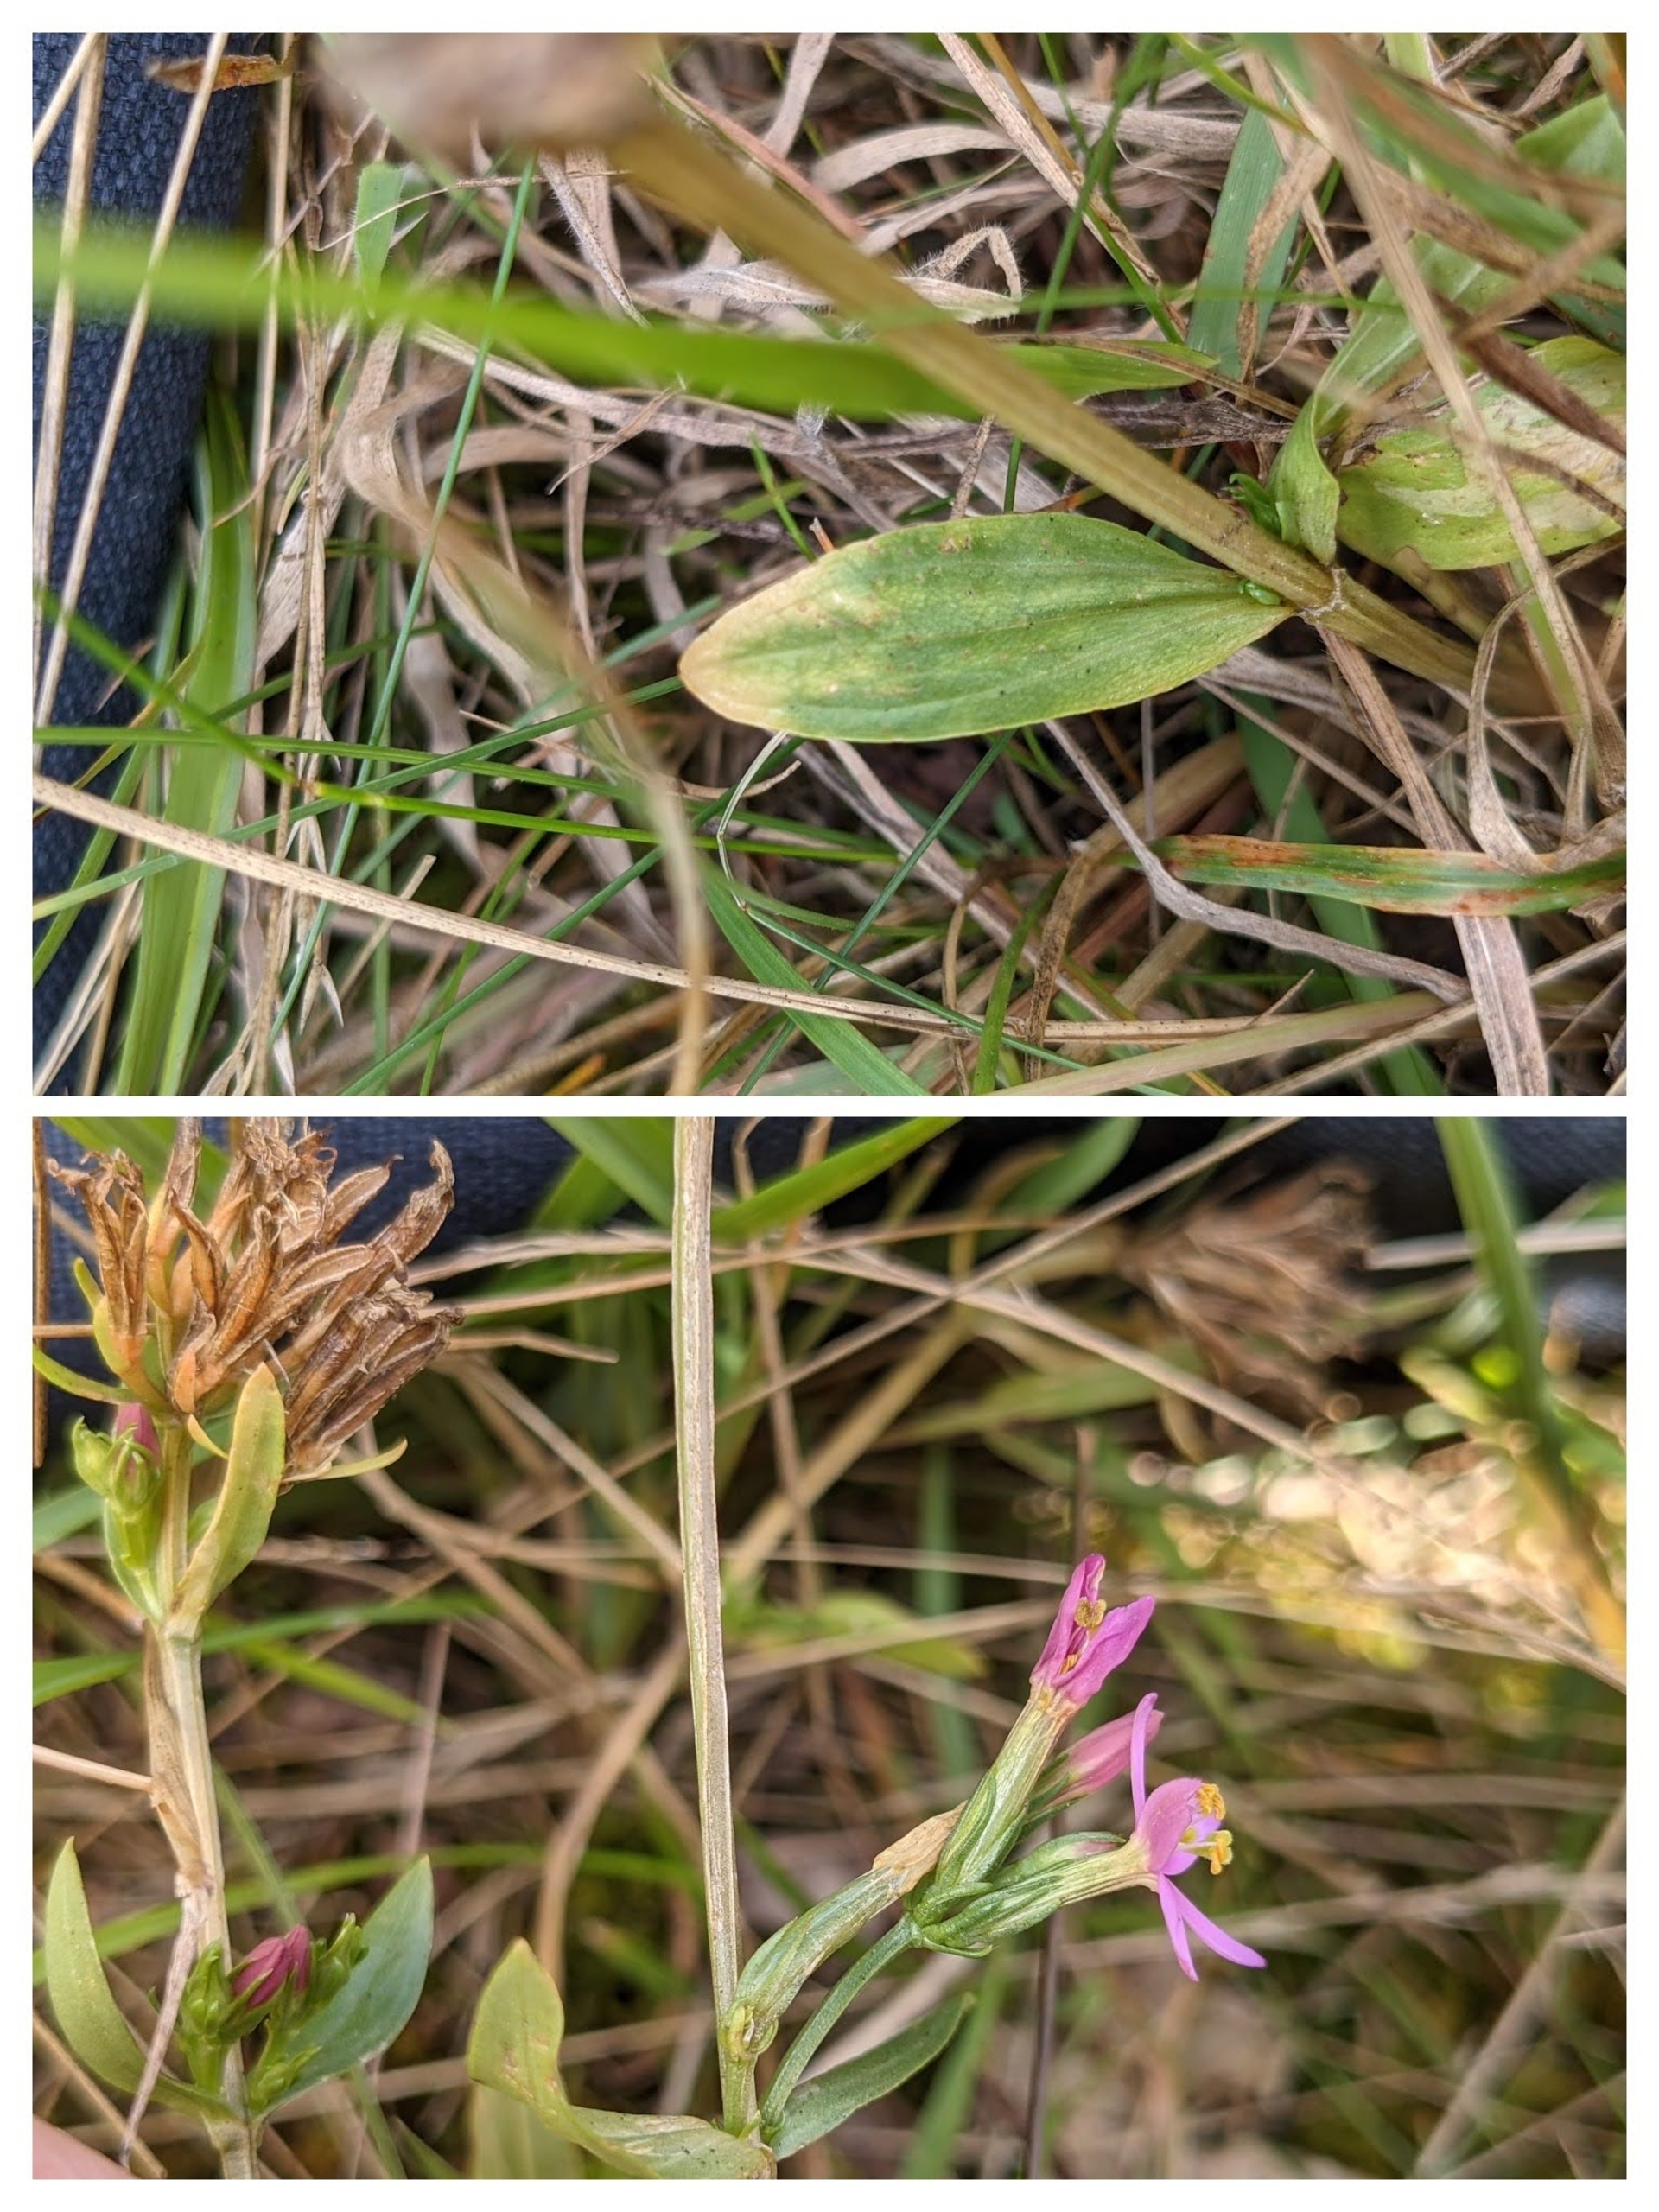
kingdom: Plantae
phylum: Tracheophyta
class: Magnoliopsida
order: Gentianales
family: Gentianaceae
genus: Centaurium
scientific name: Centaurium erythraea
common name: Mark-tusindgylden
